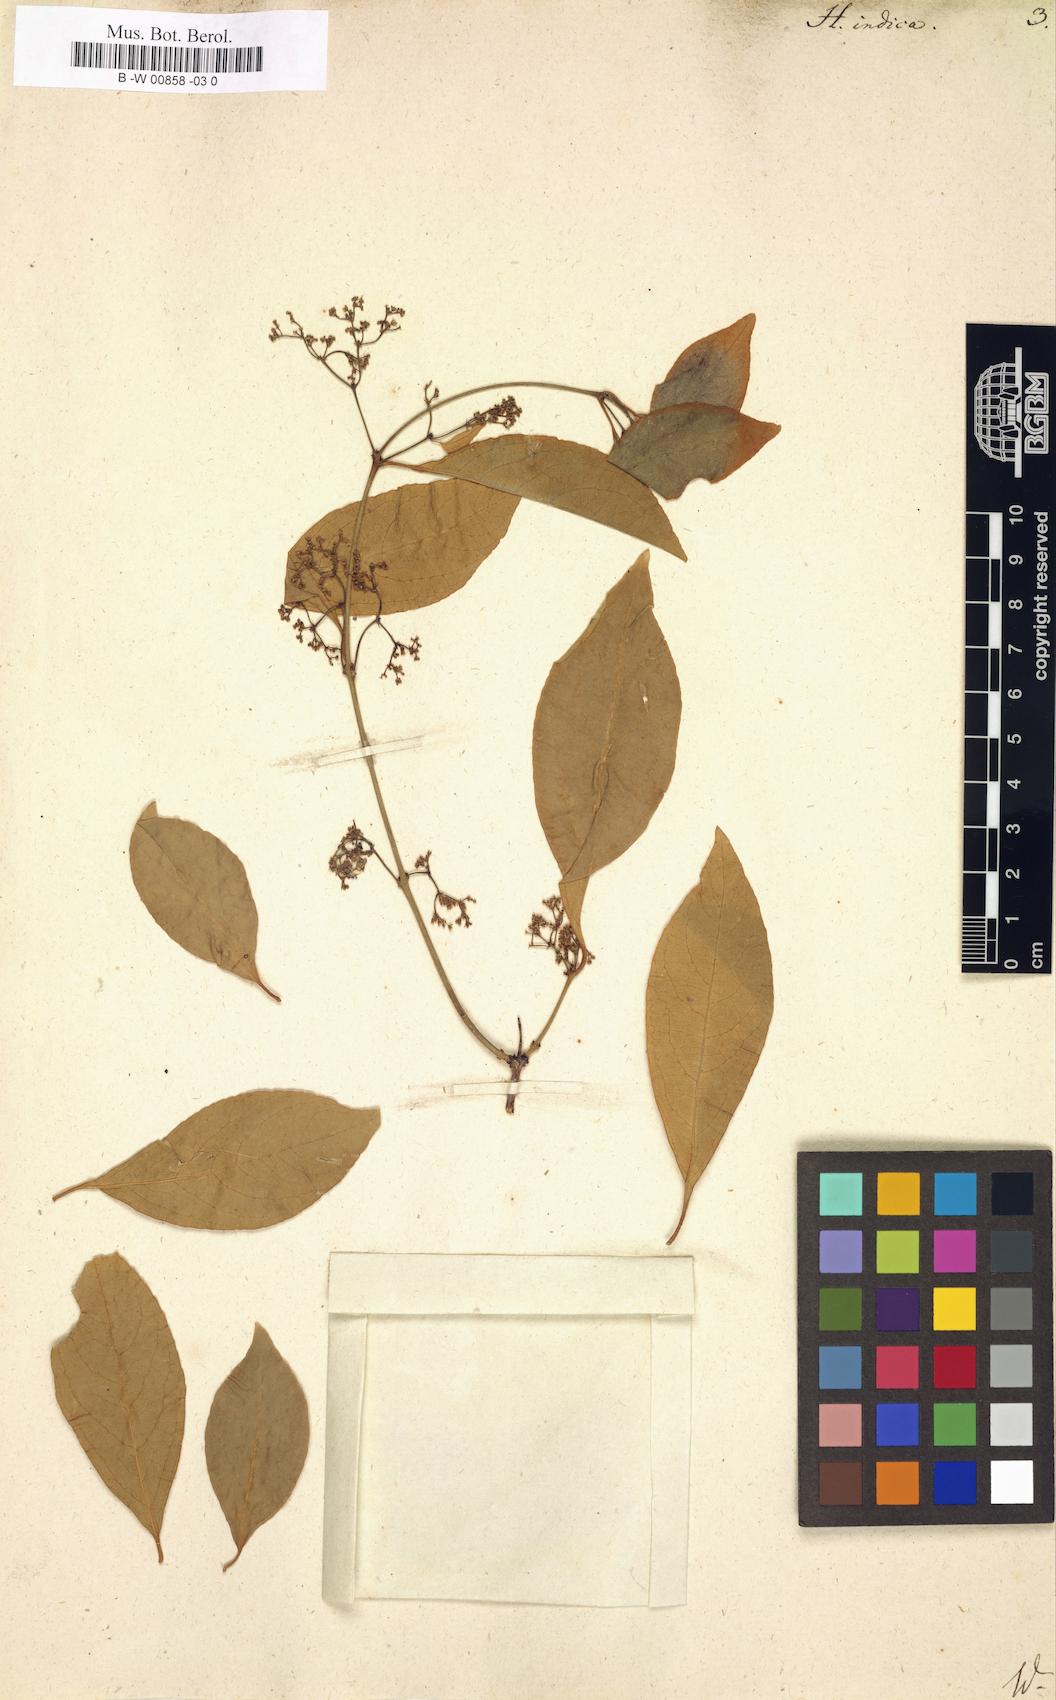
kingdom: Plantae
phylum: Tracheophyta
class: Magnoliopsida
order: Celastrales
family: Celastraceae
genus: Reissantia
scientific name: Reissantia indica
